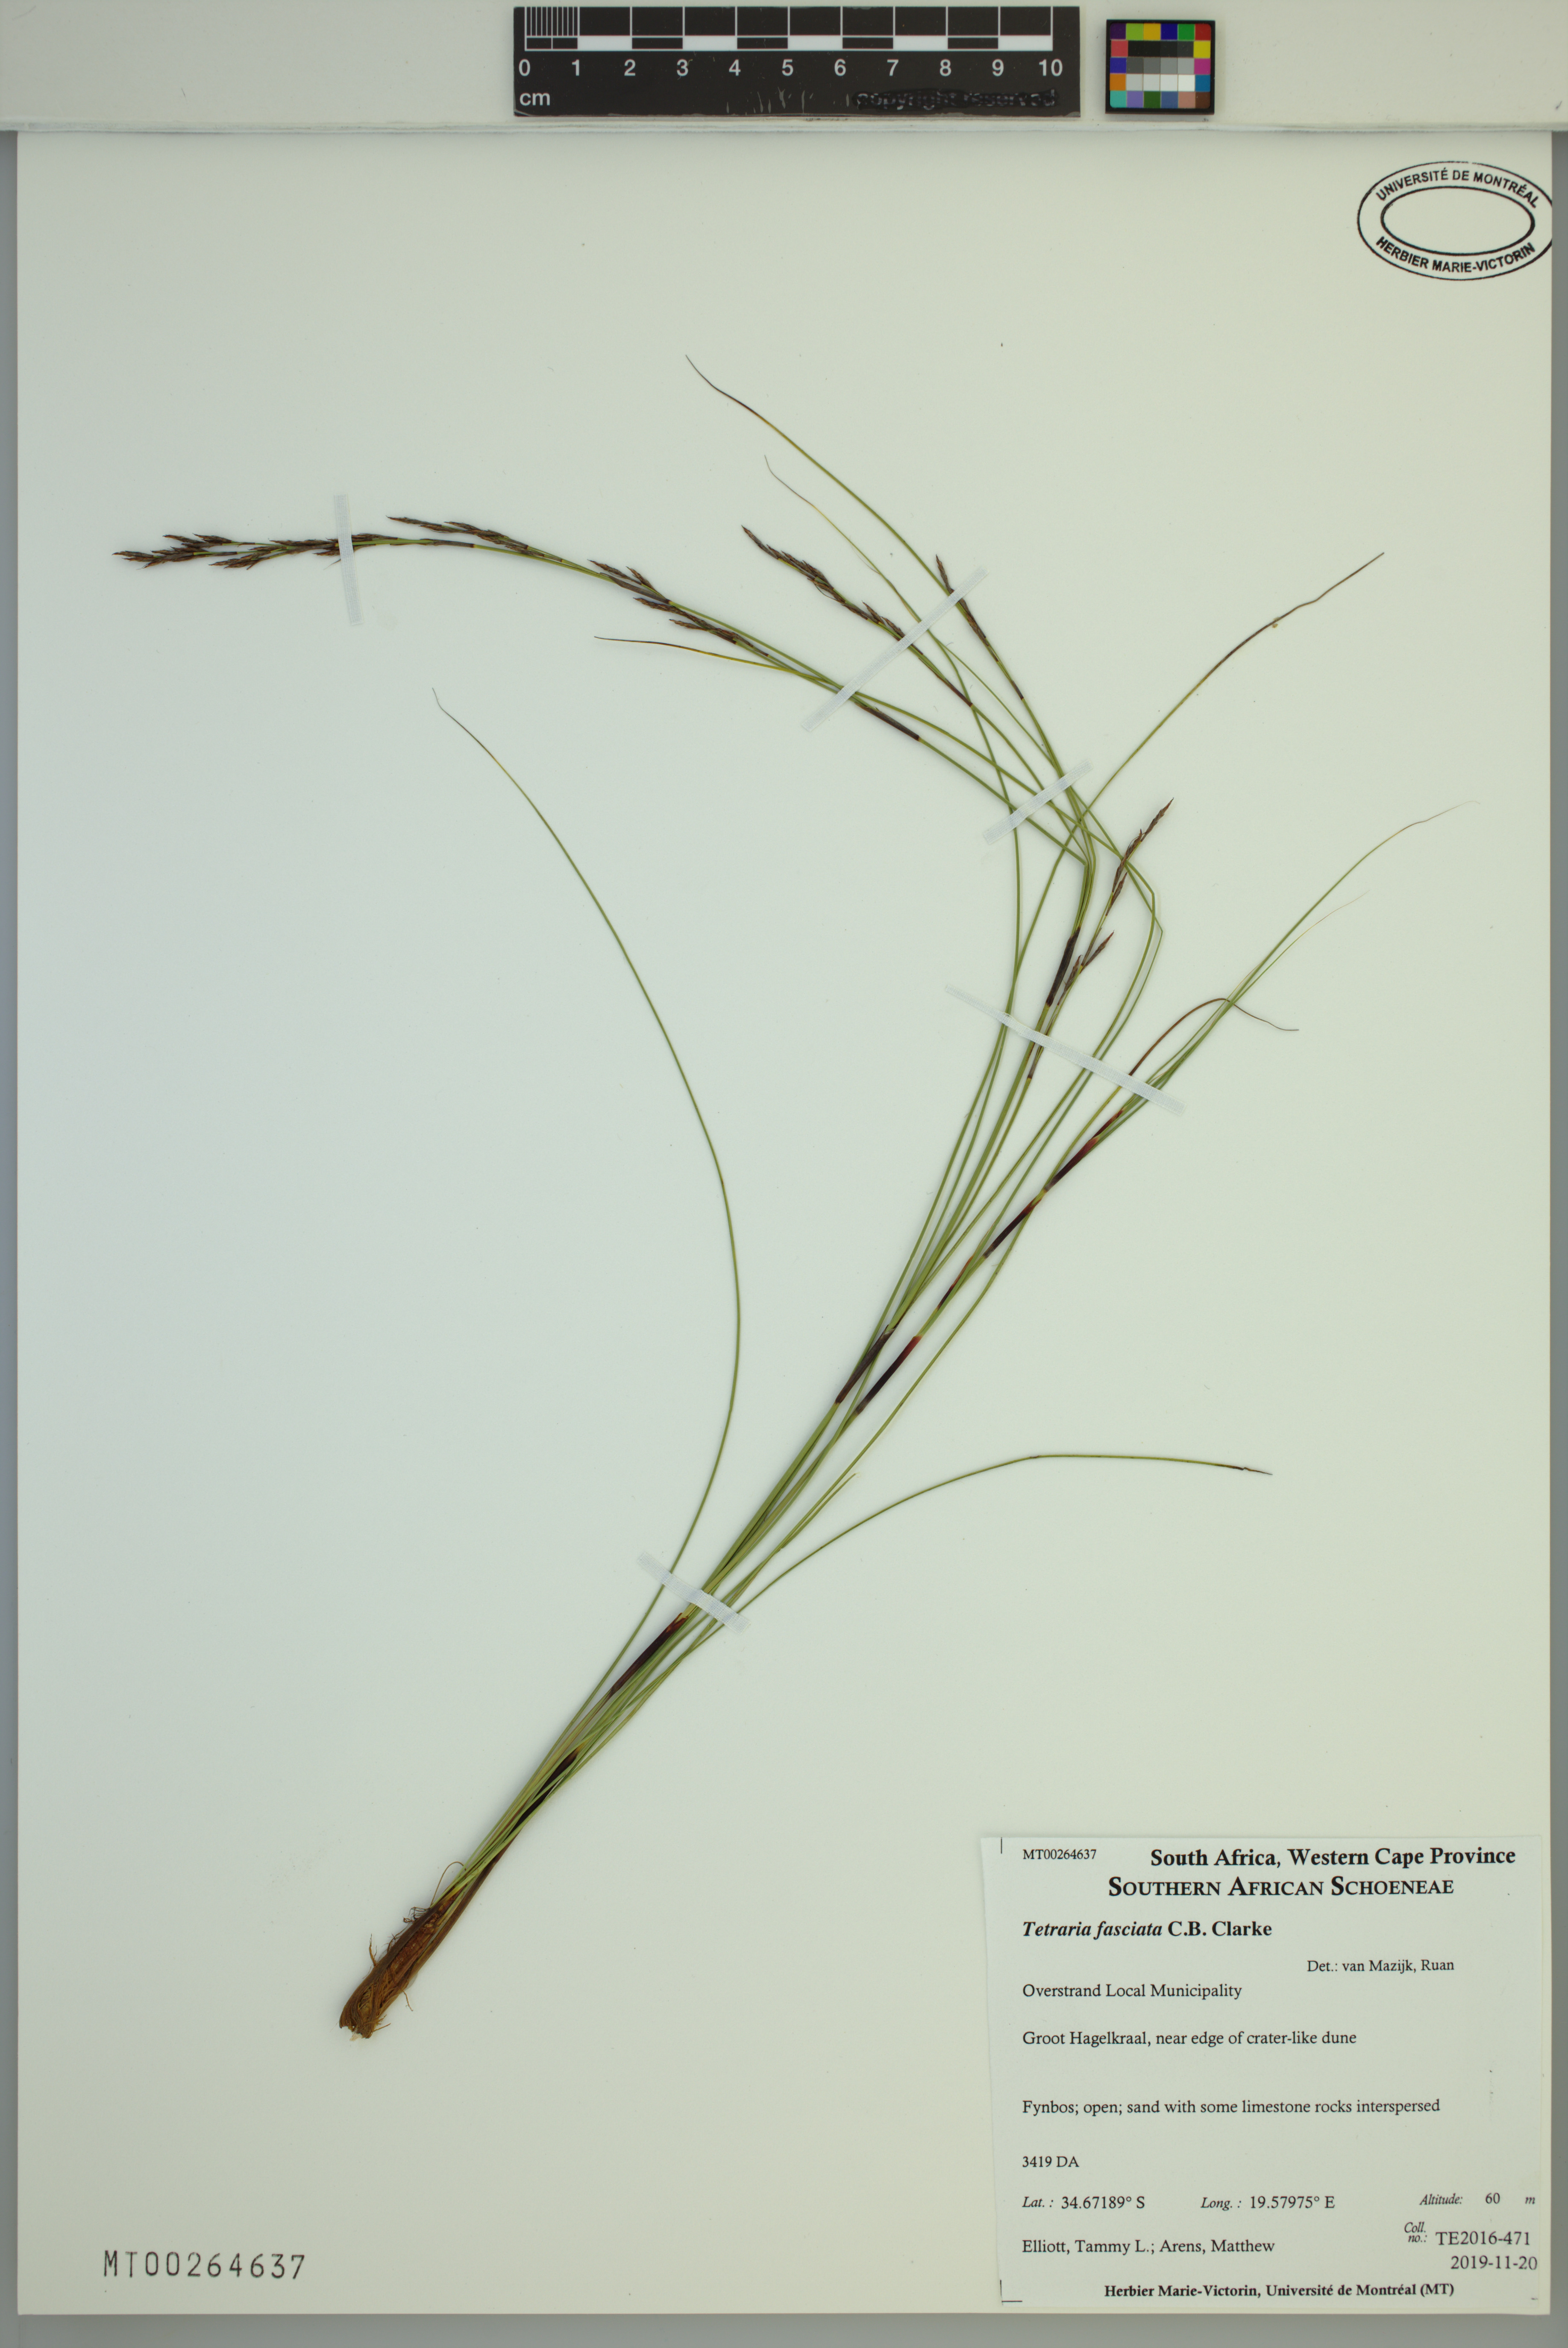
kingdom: Plantae
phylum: Tracheophyta
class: Liliopsida
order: Poales
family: Cyperaceae
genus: Tetraria
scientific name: Tetraria fasciata
